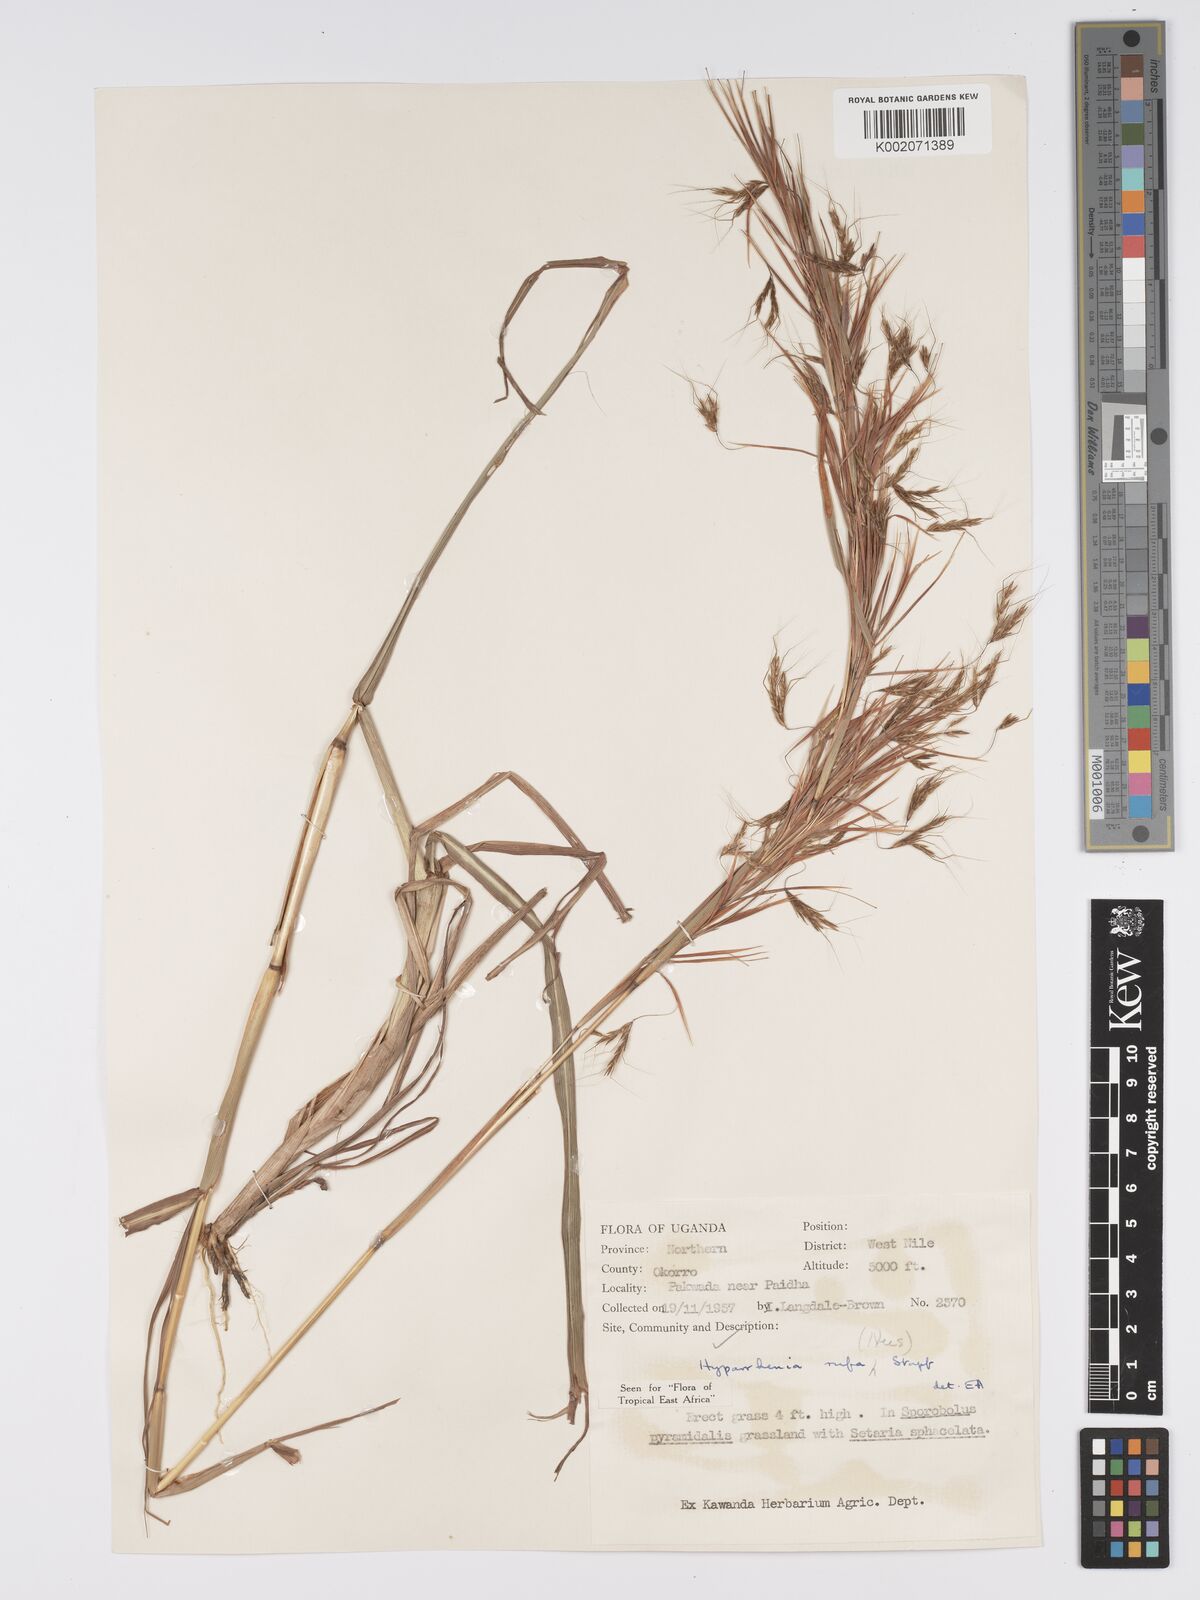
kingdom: Plantae
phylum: Tracheophyta
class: Liliopsida
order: Poales
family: Poaceae
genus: Hyparrhenia
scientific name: Hyparrhenia rufa
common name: Jaraguagrass
